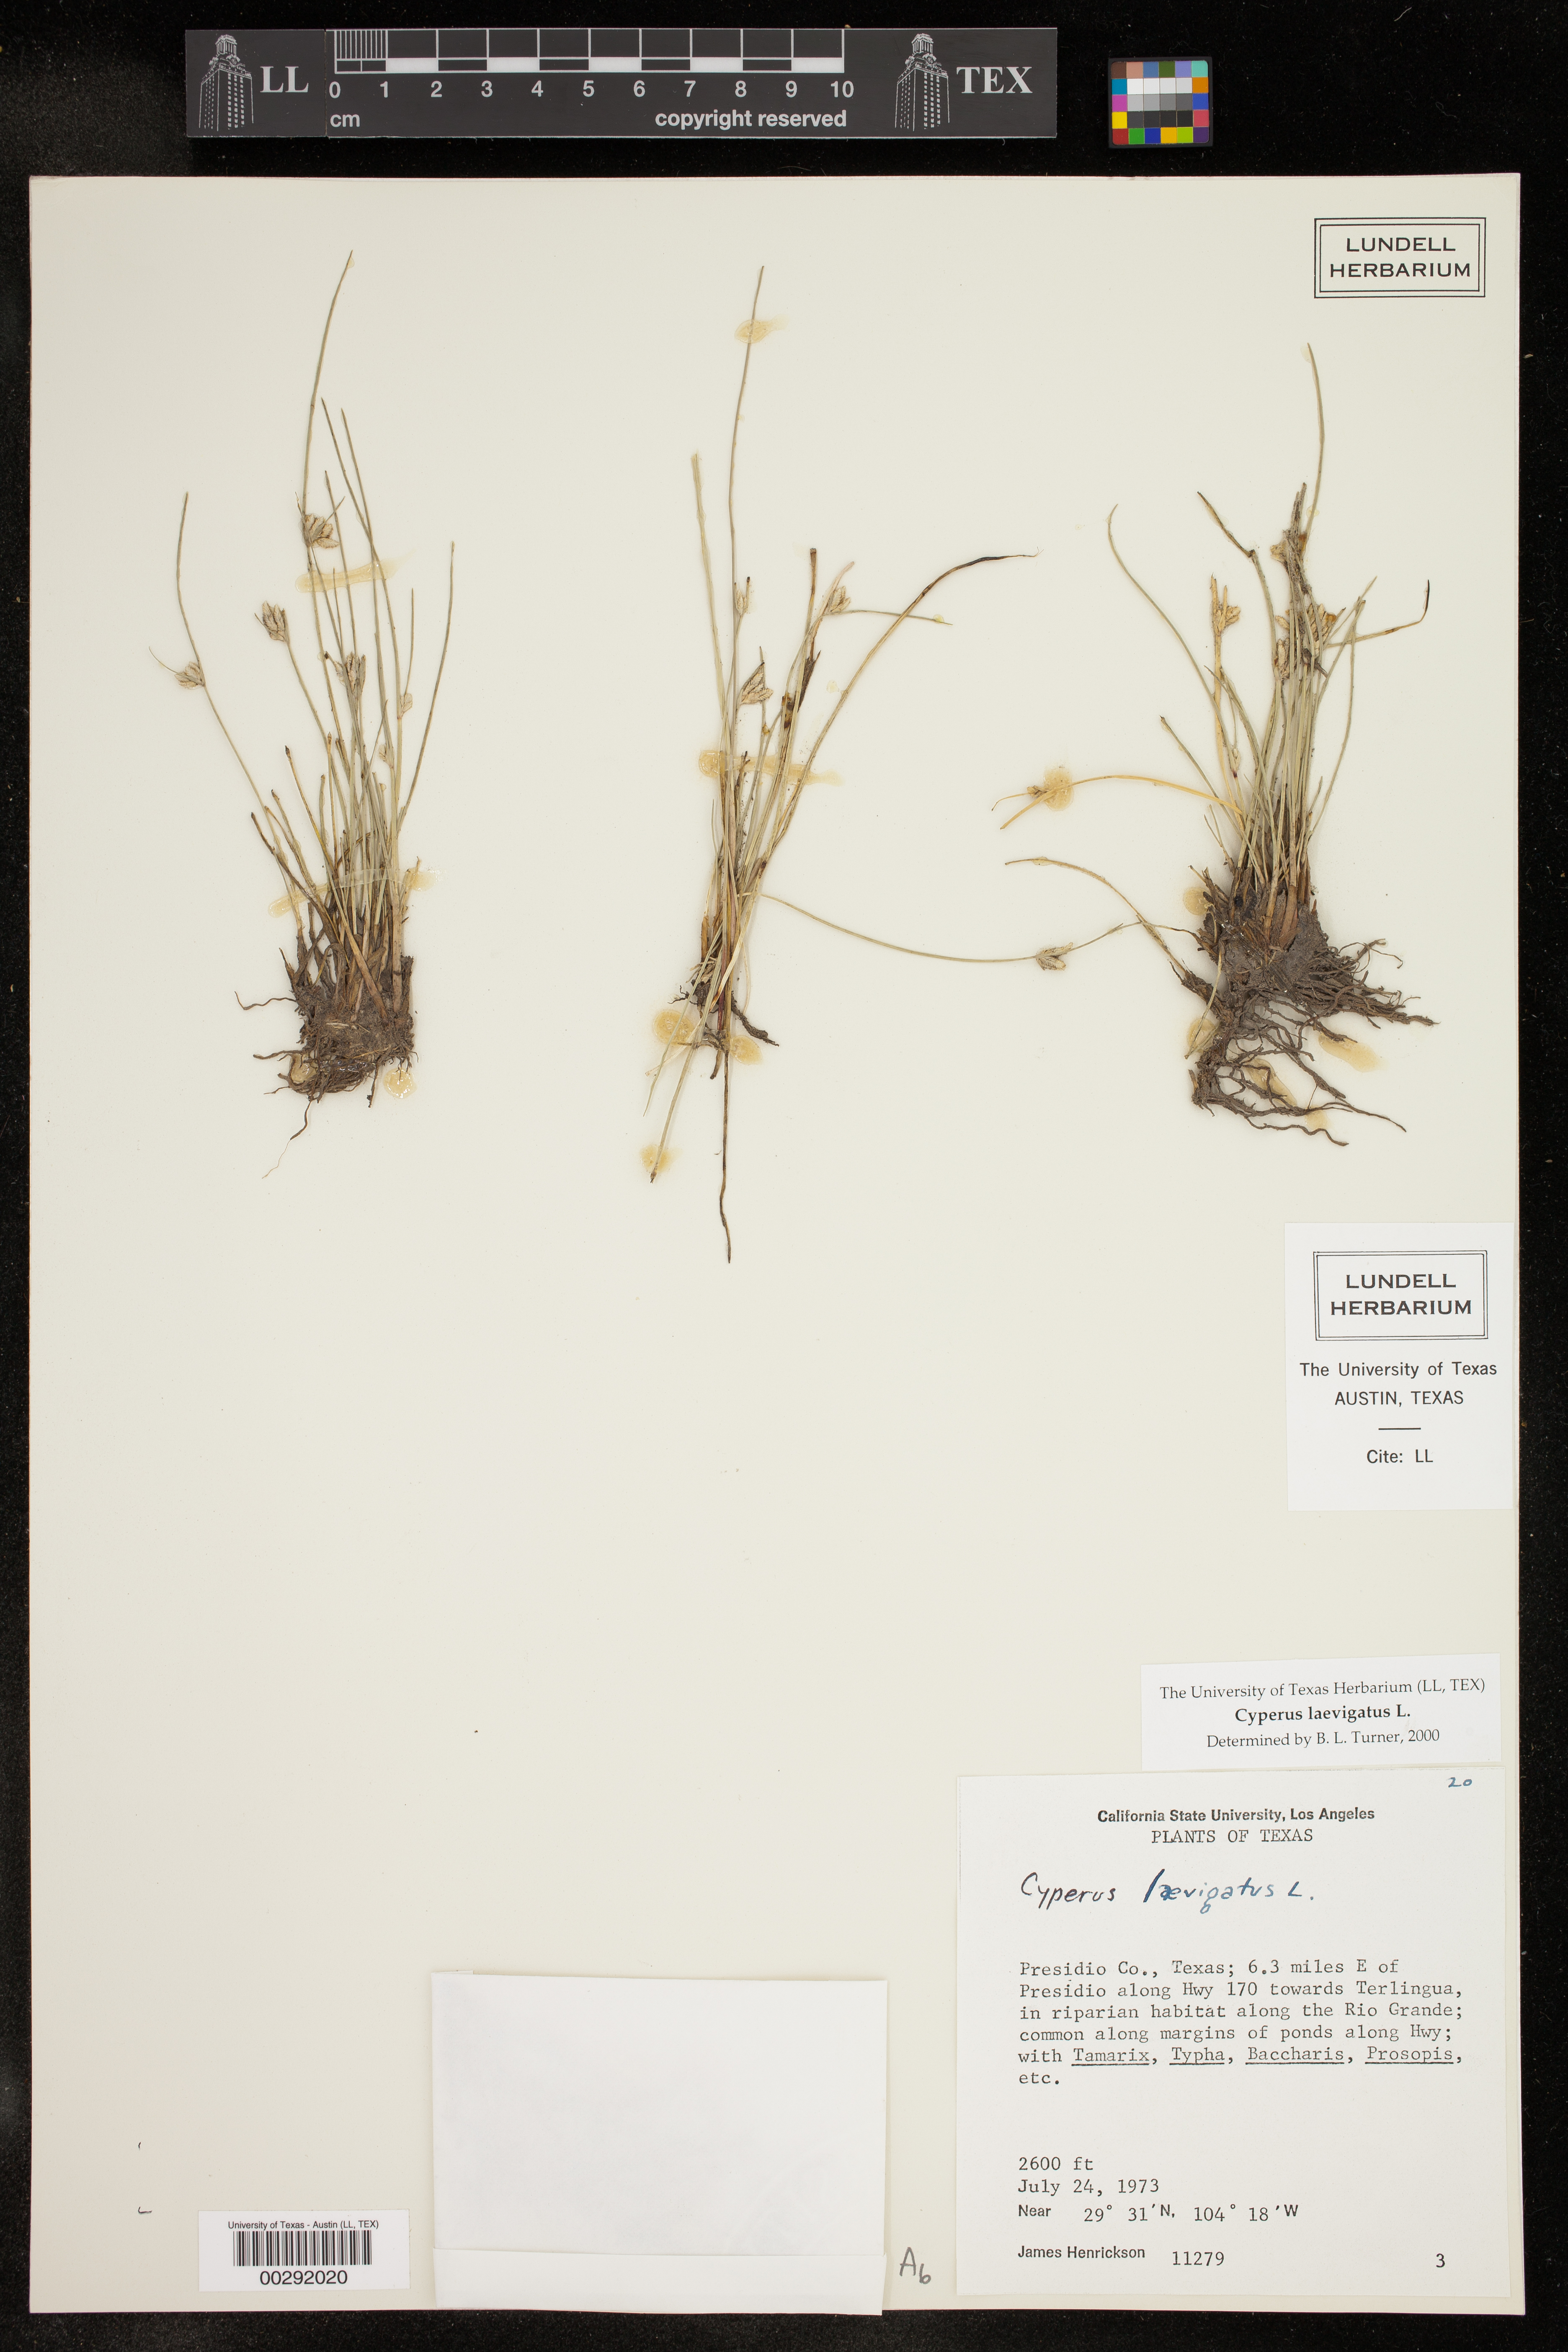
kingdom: Plantae
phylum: Tracheophyta
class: Liliopsida
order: Poales
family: Cyperaceae
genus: Cyperus
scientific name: Cyperus laevigatus
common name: Smooth flat sedge
